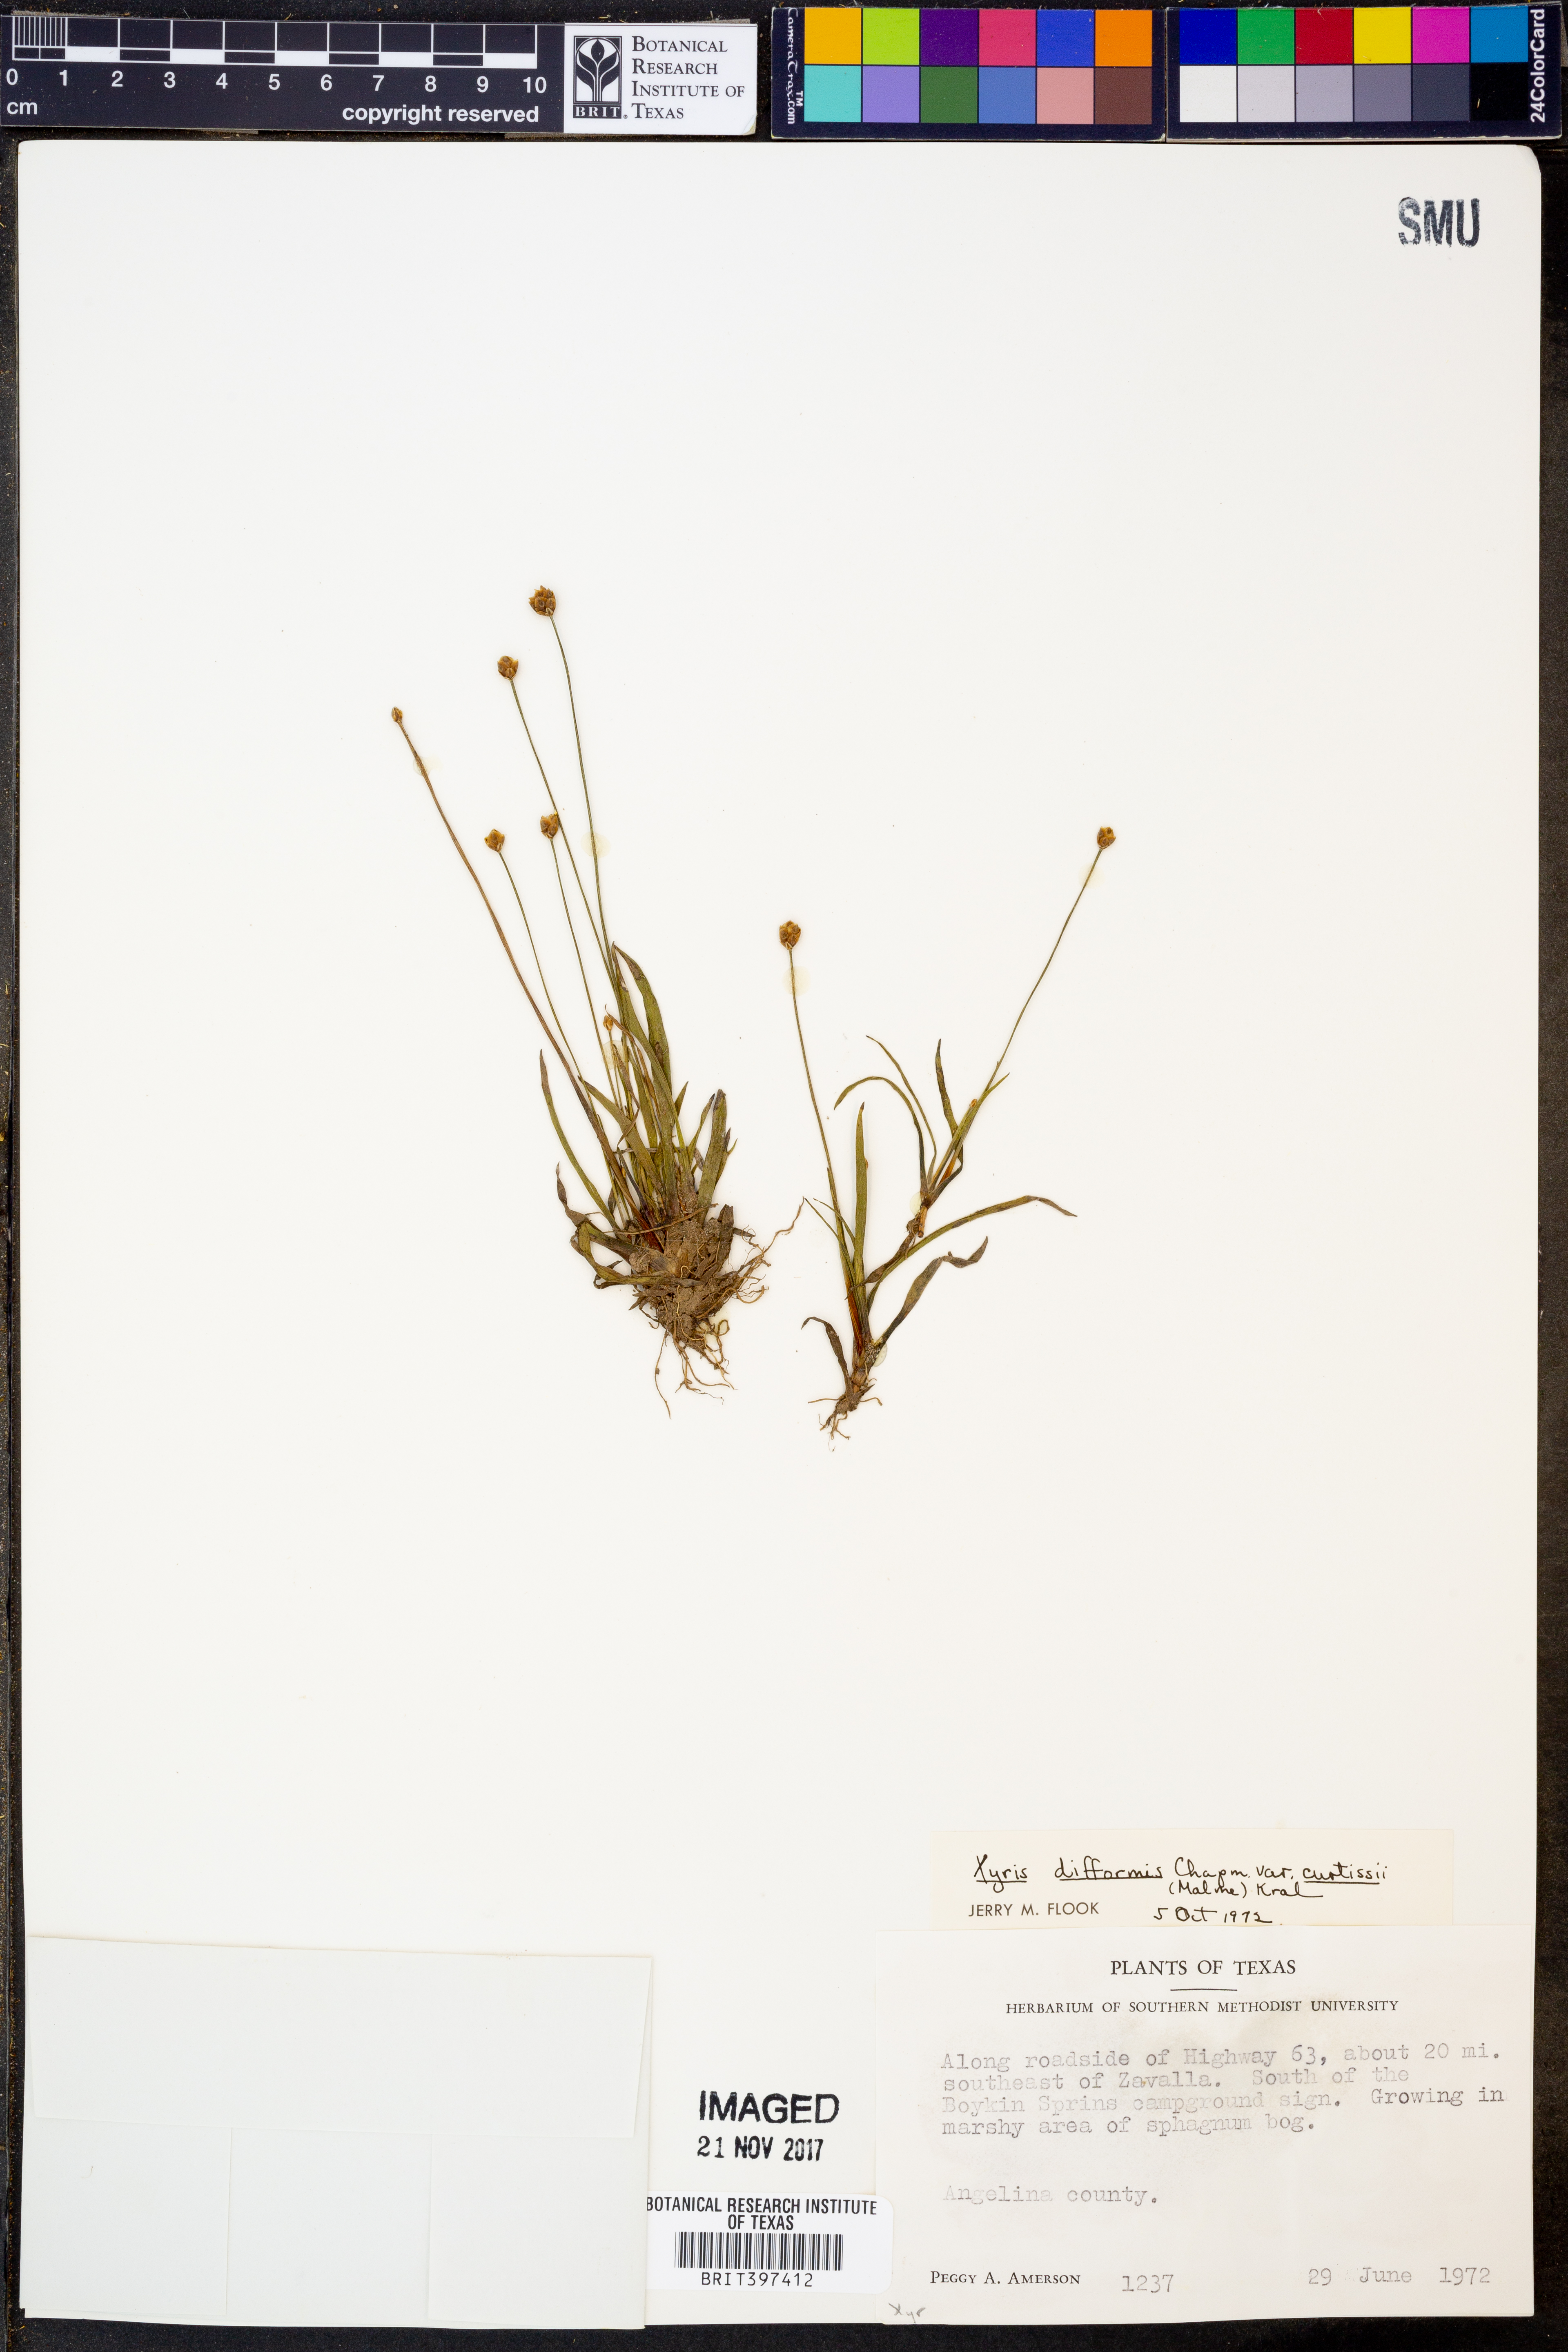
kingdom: Plantae
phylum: Tracheophyta
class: Liliopsida
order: Poales
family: Xyridaceae
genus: Xyris
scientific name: Xyris difformis
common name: Bog yellow-eyed-grass
